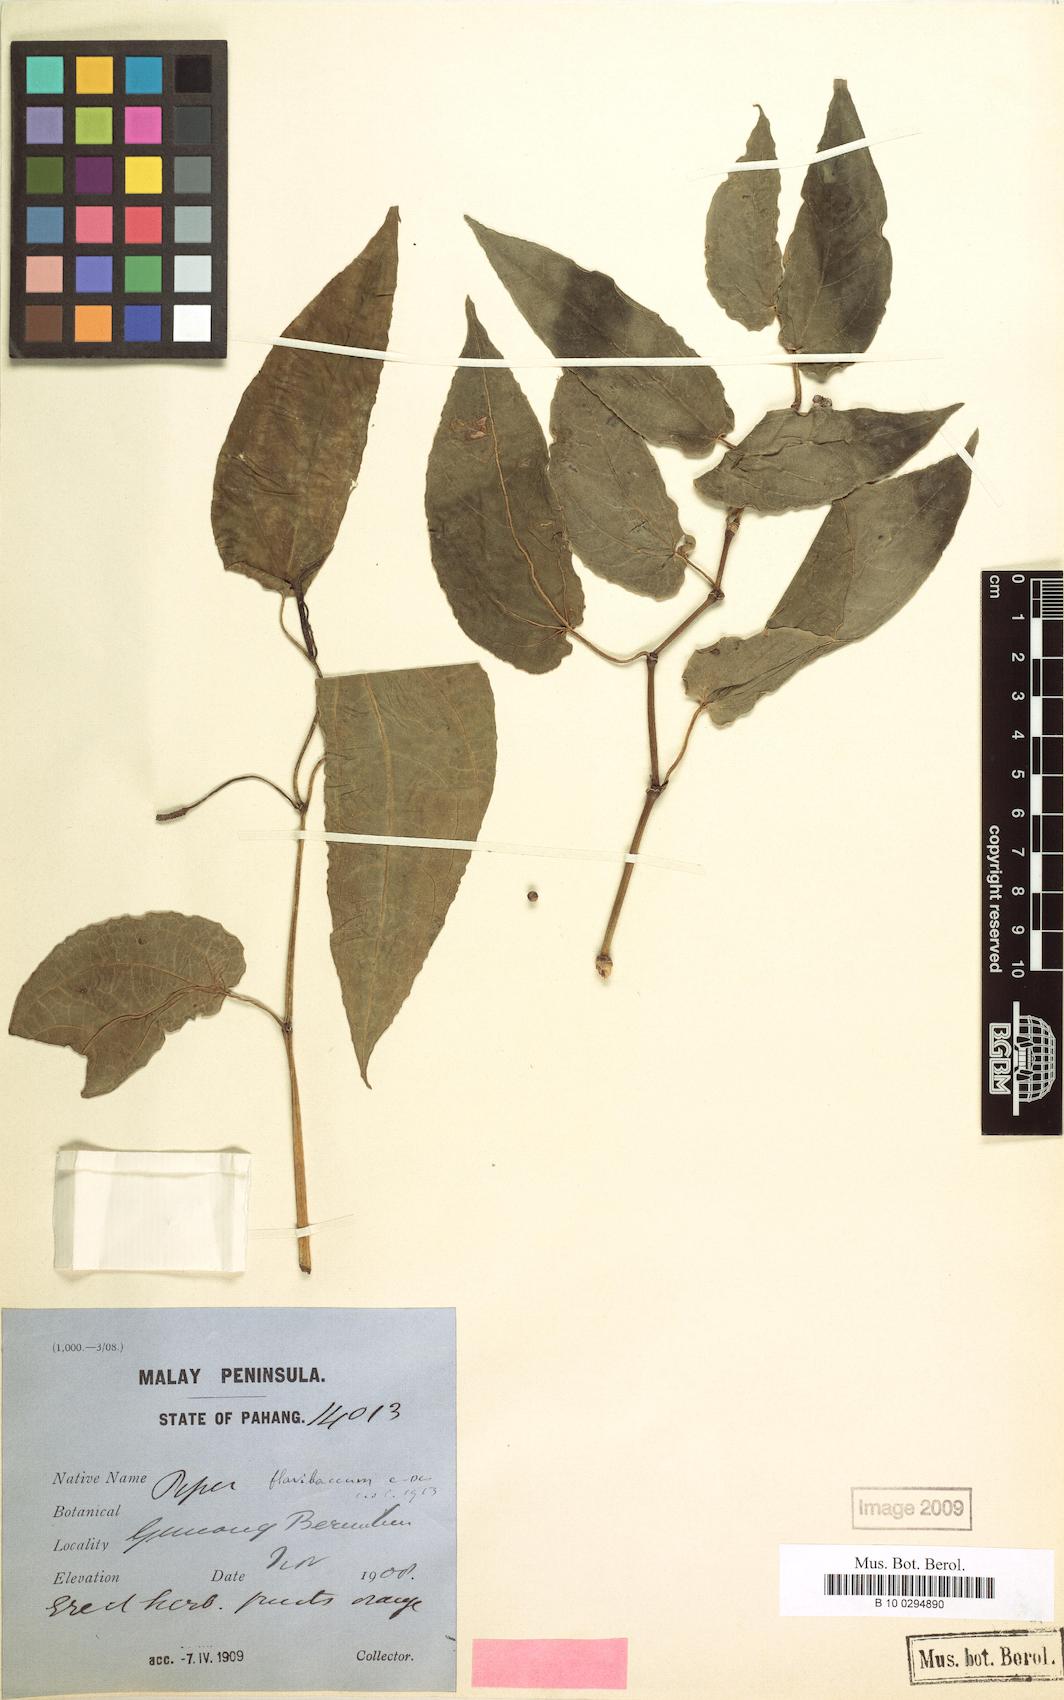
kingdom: Plantae
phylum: Tracheophyta
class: Magnoliopsida
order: Piperales
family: Piperaceae
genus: Piper
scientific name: Piper flavibaccum
